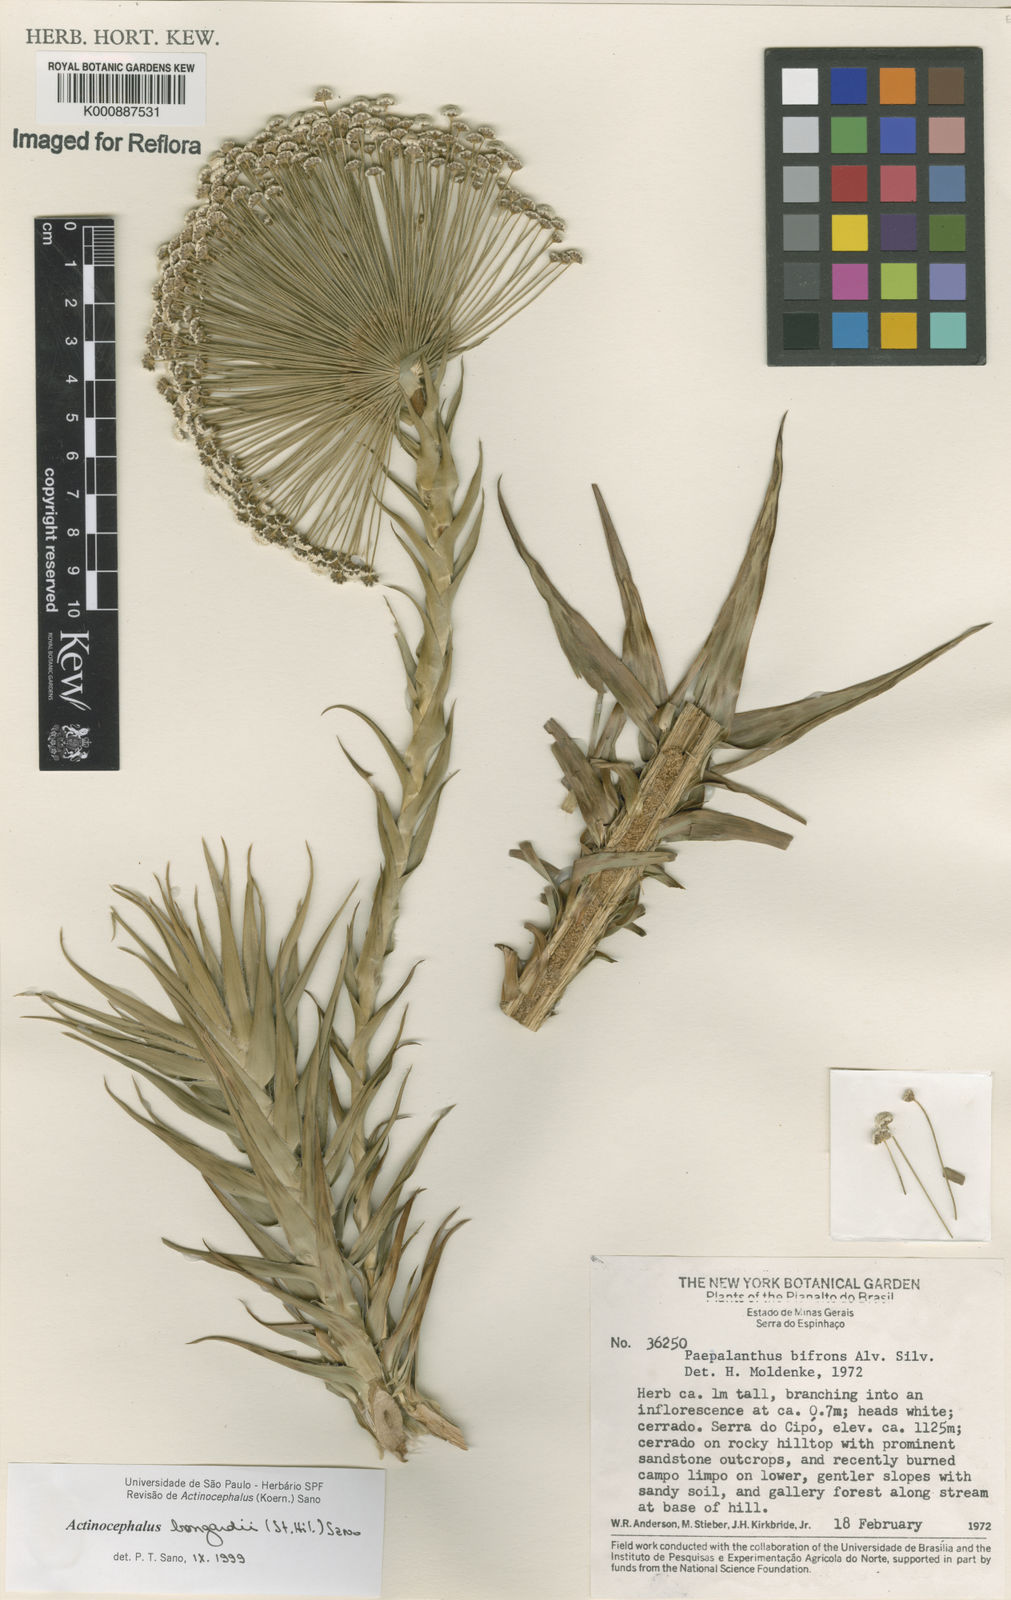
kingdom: Plantae
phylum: Tracheophyta
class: Liliopsida
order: Poales
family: Eriocaulaceae
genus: Paepalanthus
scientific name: Paepalanthus hilairei
